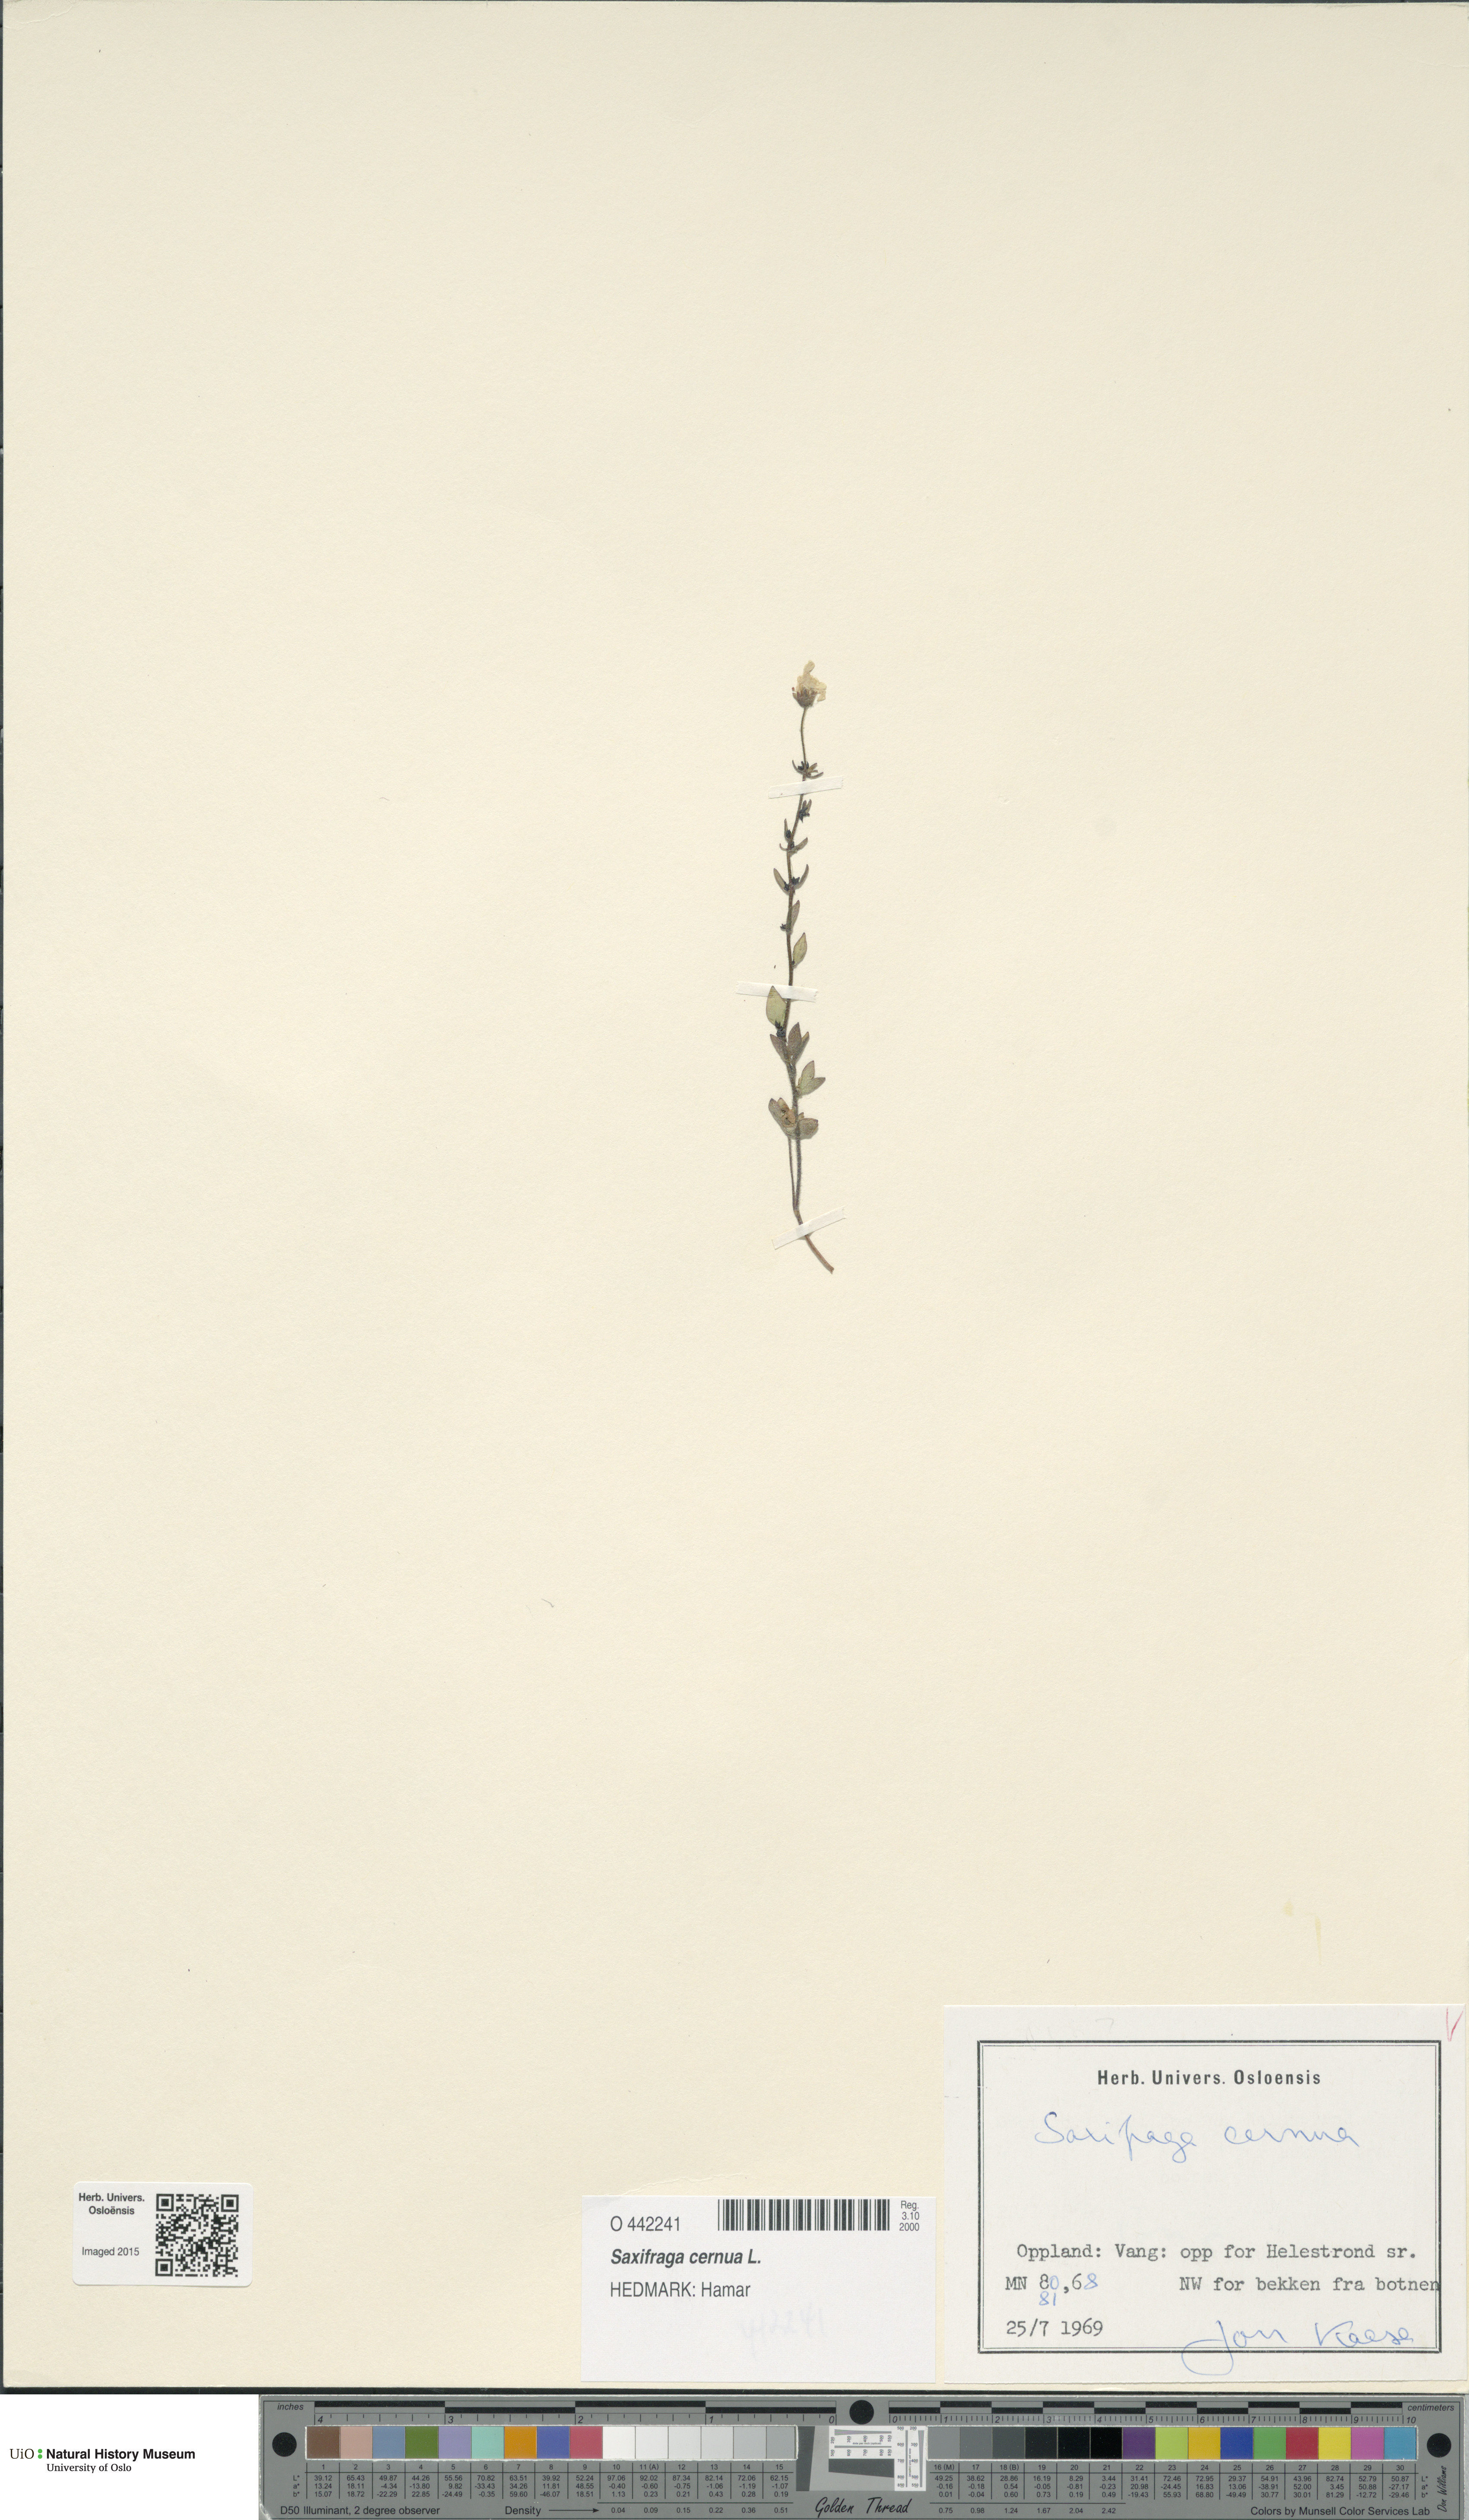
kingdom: Plantae
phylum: Tracheophyta
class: Magnoliopsida
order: Saxifragales
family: Saxifragaceae
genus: Saxifraga
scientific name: Saxifraga cernua
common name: Drooping saxifrage
